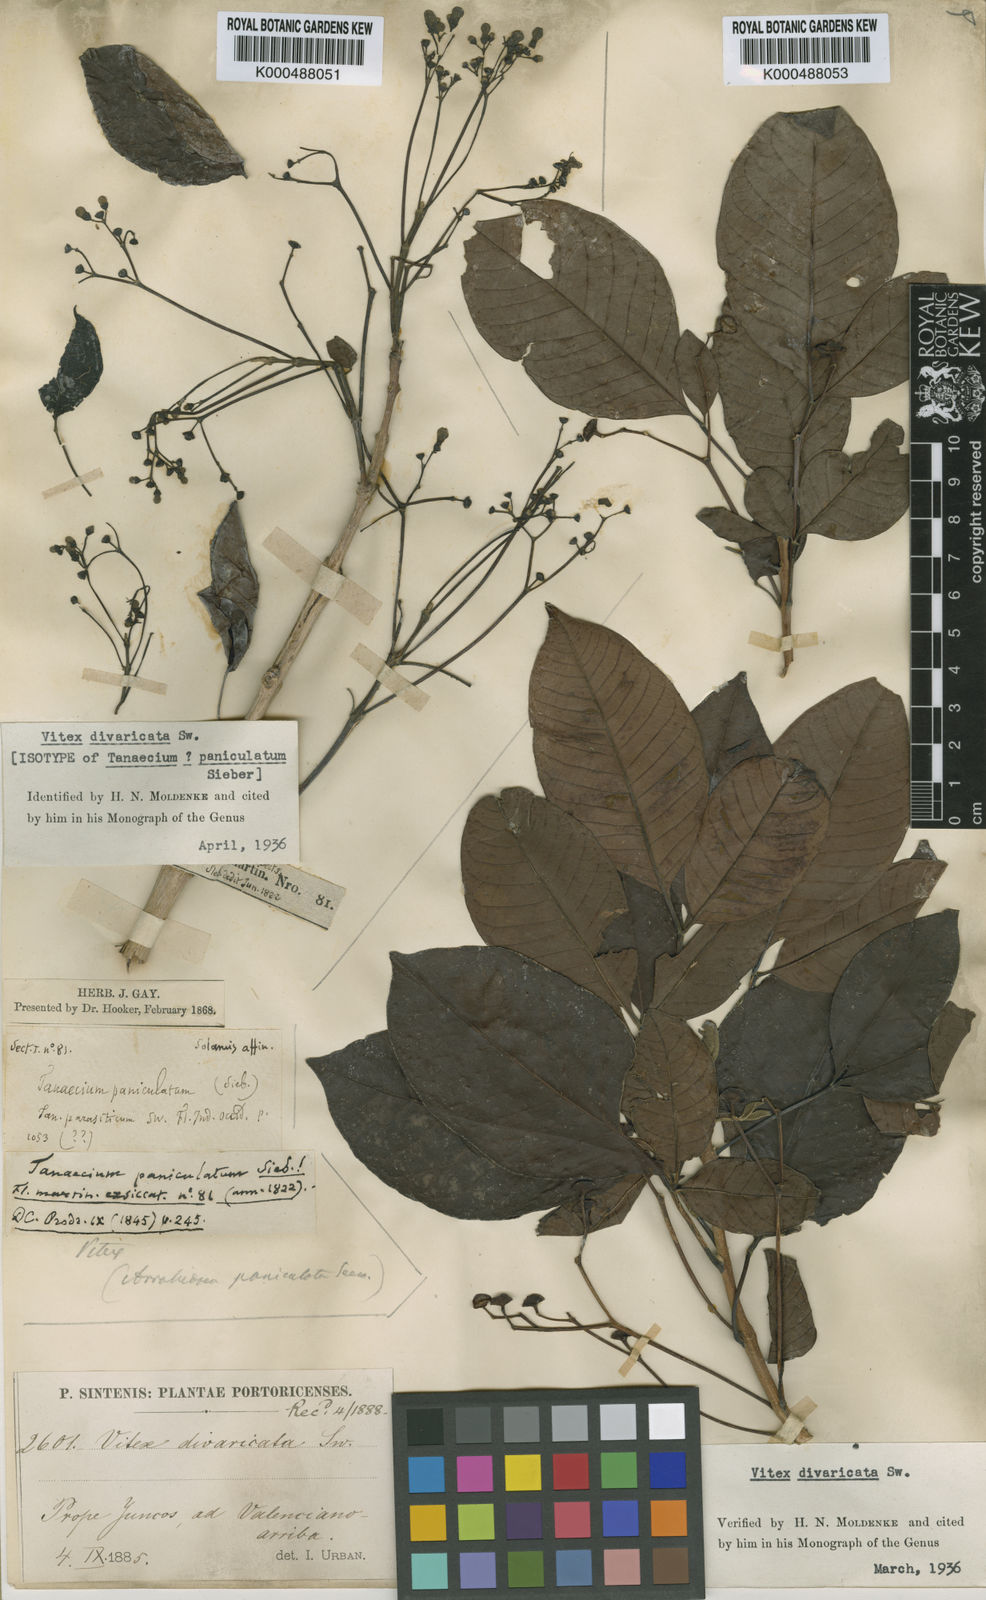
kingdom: Plantae
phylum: Tracheophyta
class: Magnoliopsida
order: Lamiales
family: Lamiaceae
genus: Vitex
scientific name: Vitex divaricata
